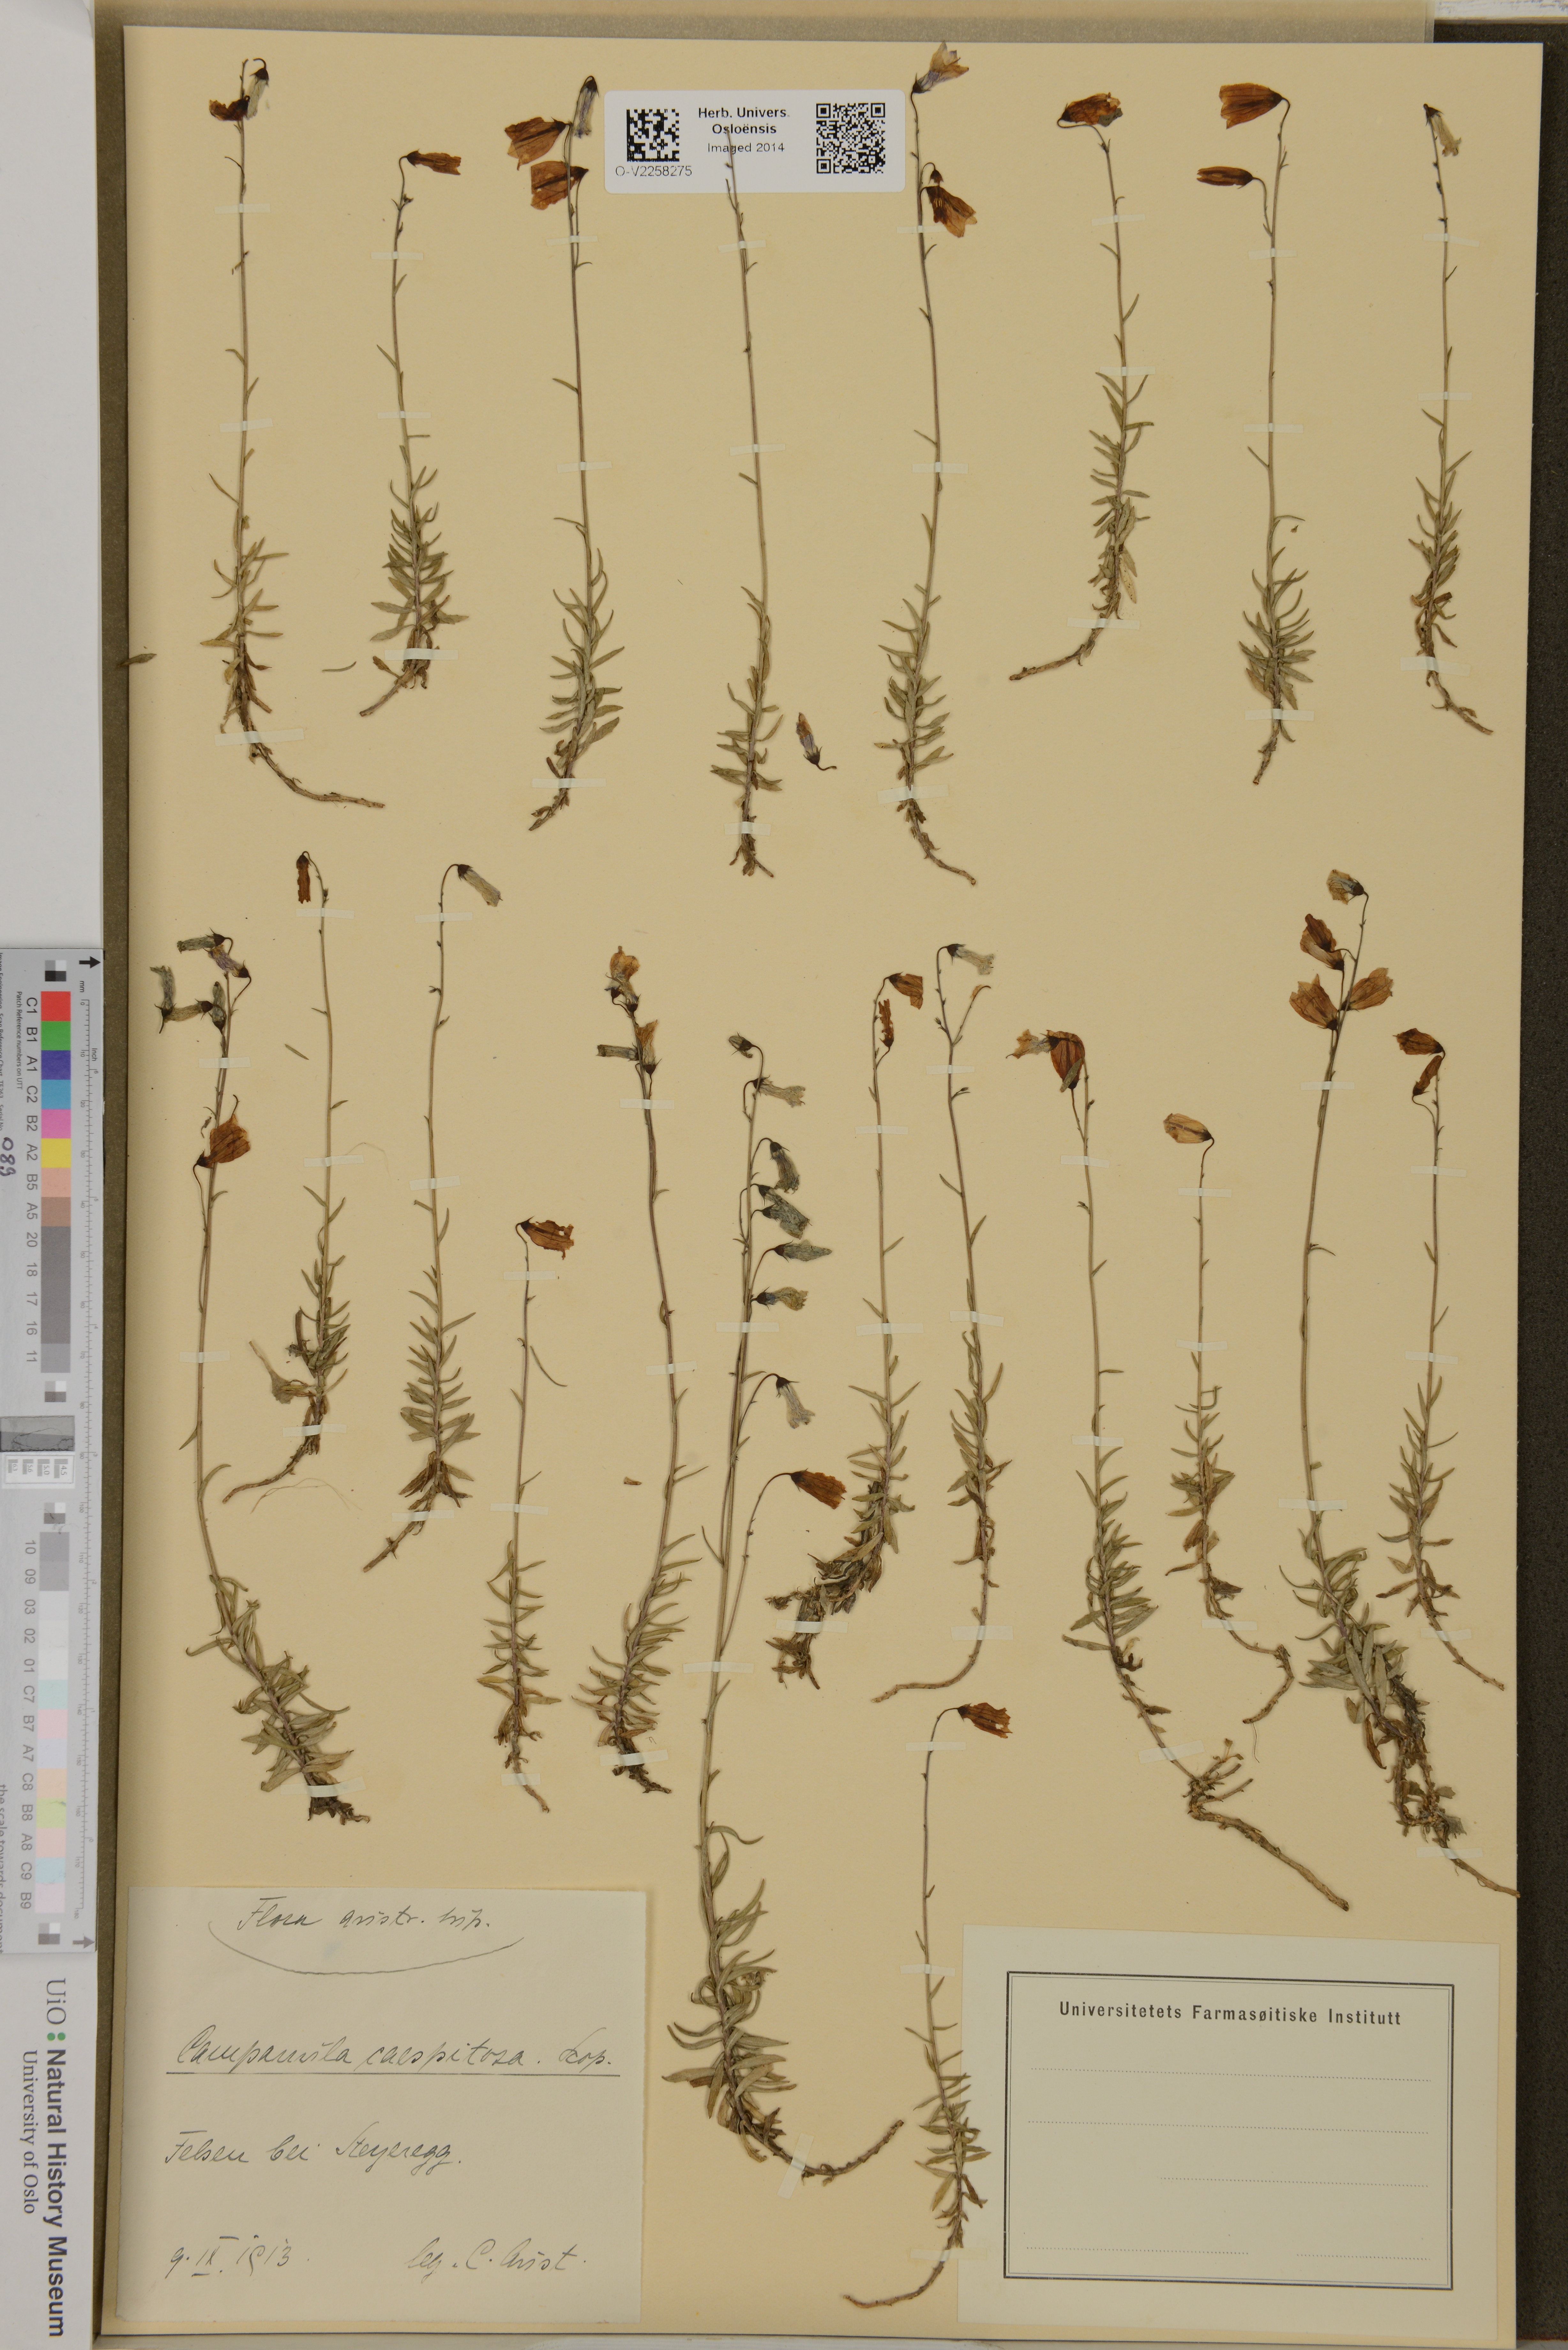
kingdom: Plantae
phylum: Tracheophyta
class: Magnoliopsida
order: Asterales
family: Campanulaceae
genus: Campanula
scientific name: Campanula cespitosa
